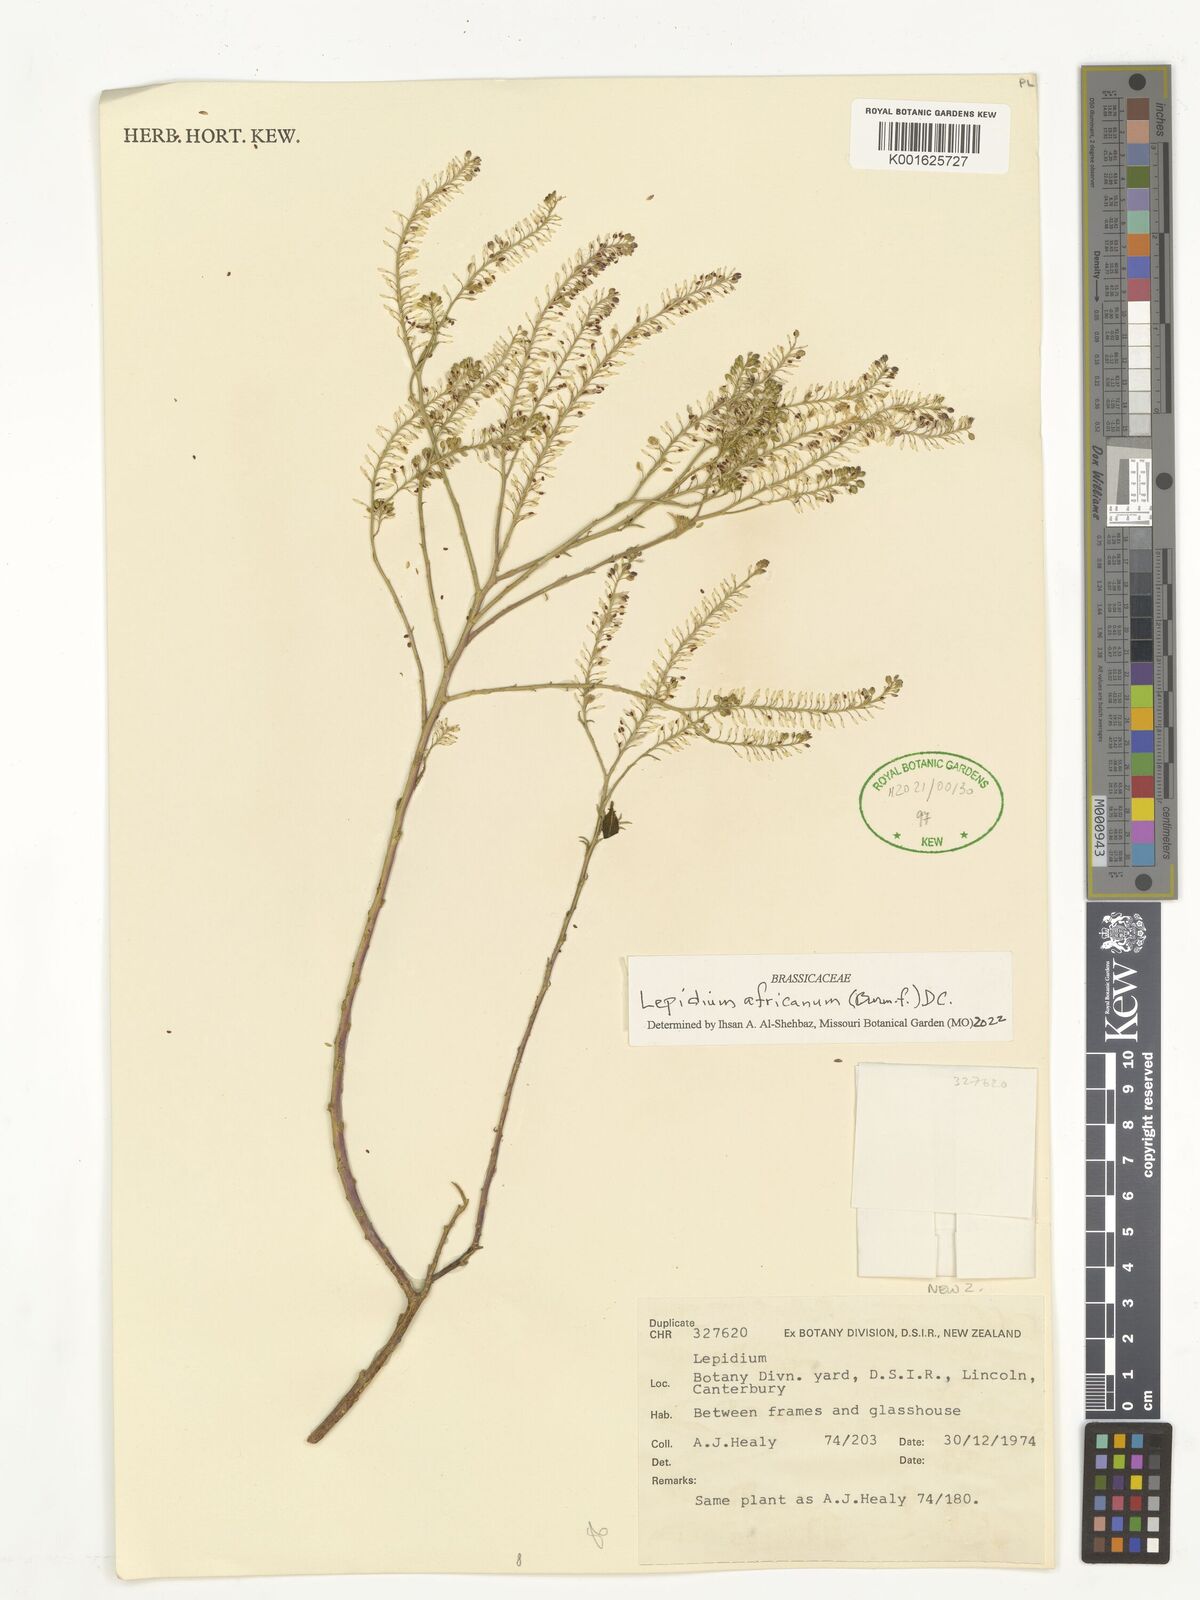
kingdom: Plantae
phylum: Tracheophyta
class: Magnoliopsida
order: Brassicales
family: Brassicaceae
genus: Lepidium
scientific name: Lepidium africanum
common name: African pepperwort
